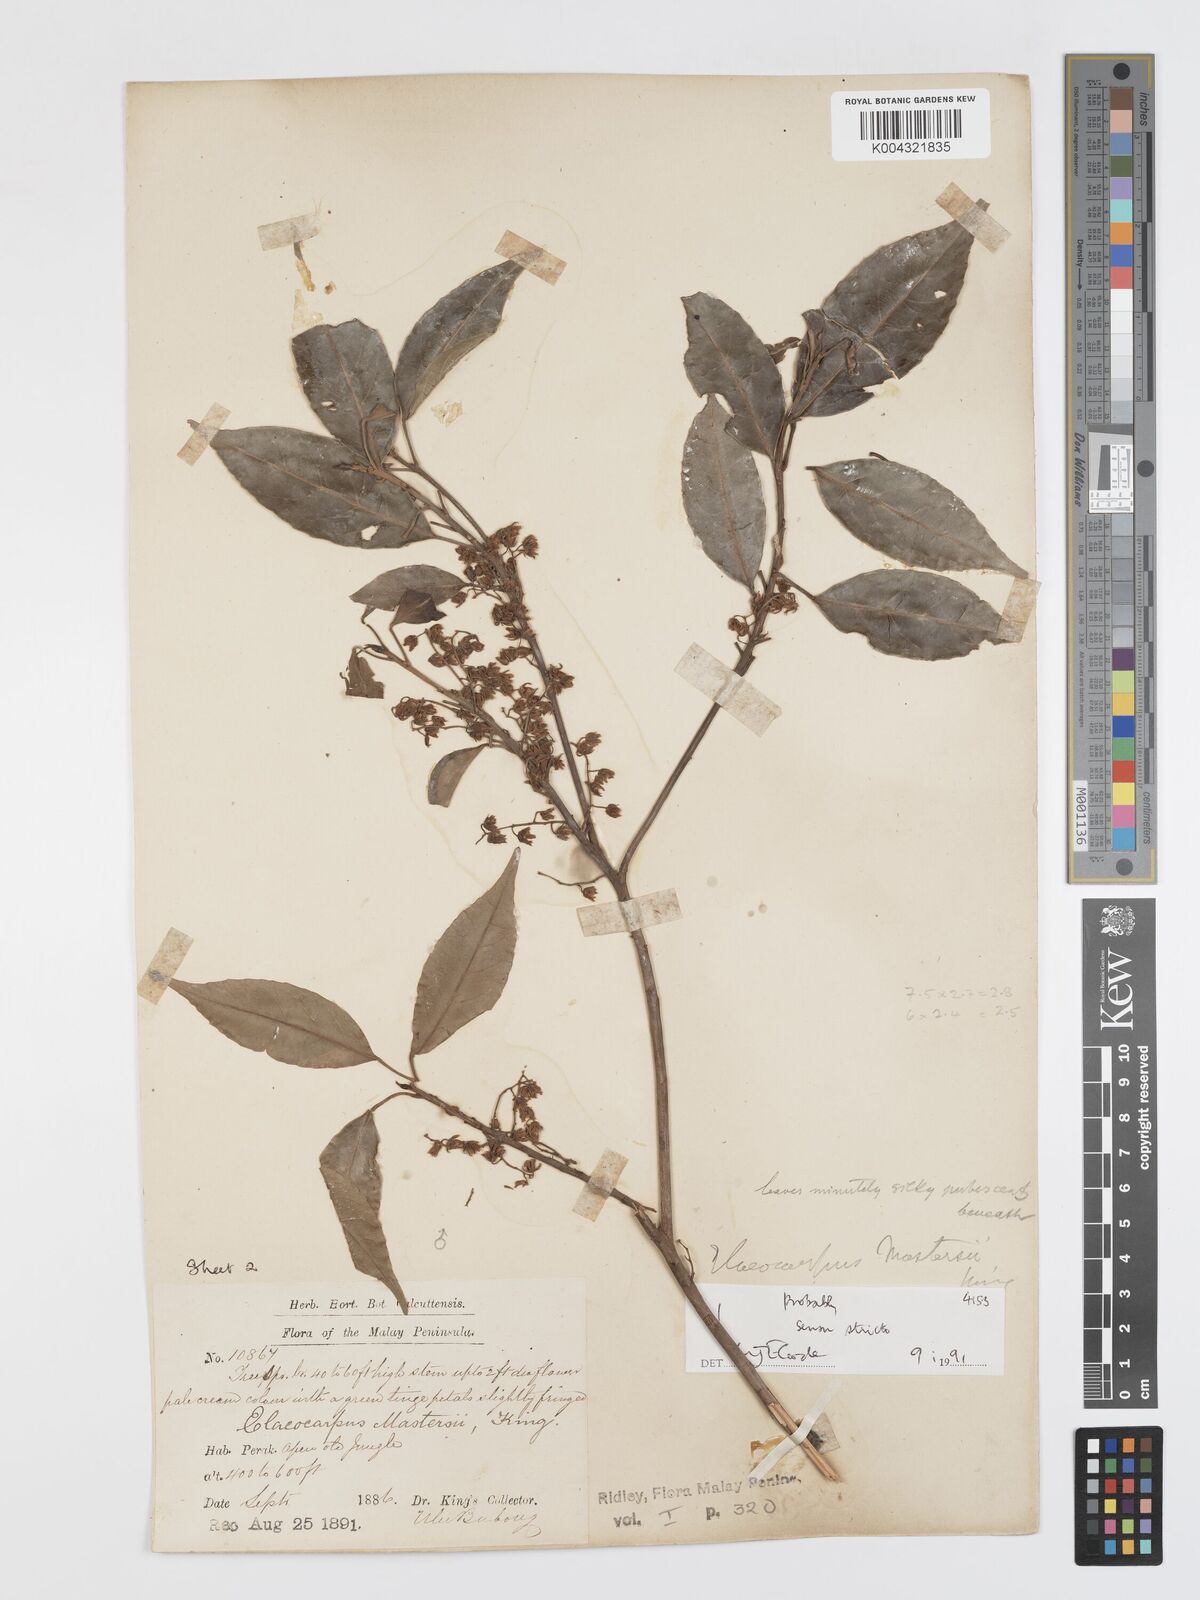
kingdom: Plantae
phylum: Tracheophyta
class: Magnoliopsida
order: Oxalidales
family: Elaeocarpaceae
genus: Elaeocarpus
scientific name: Elaeocarpus mastersii
